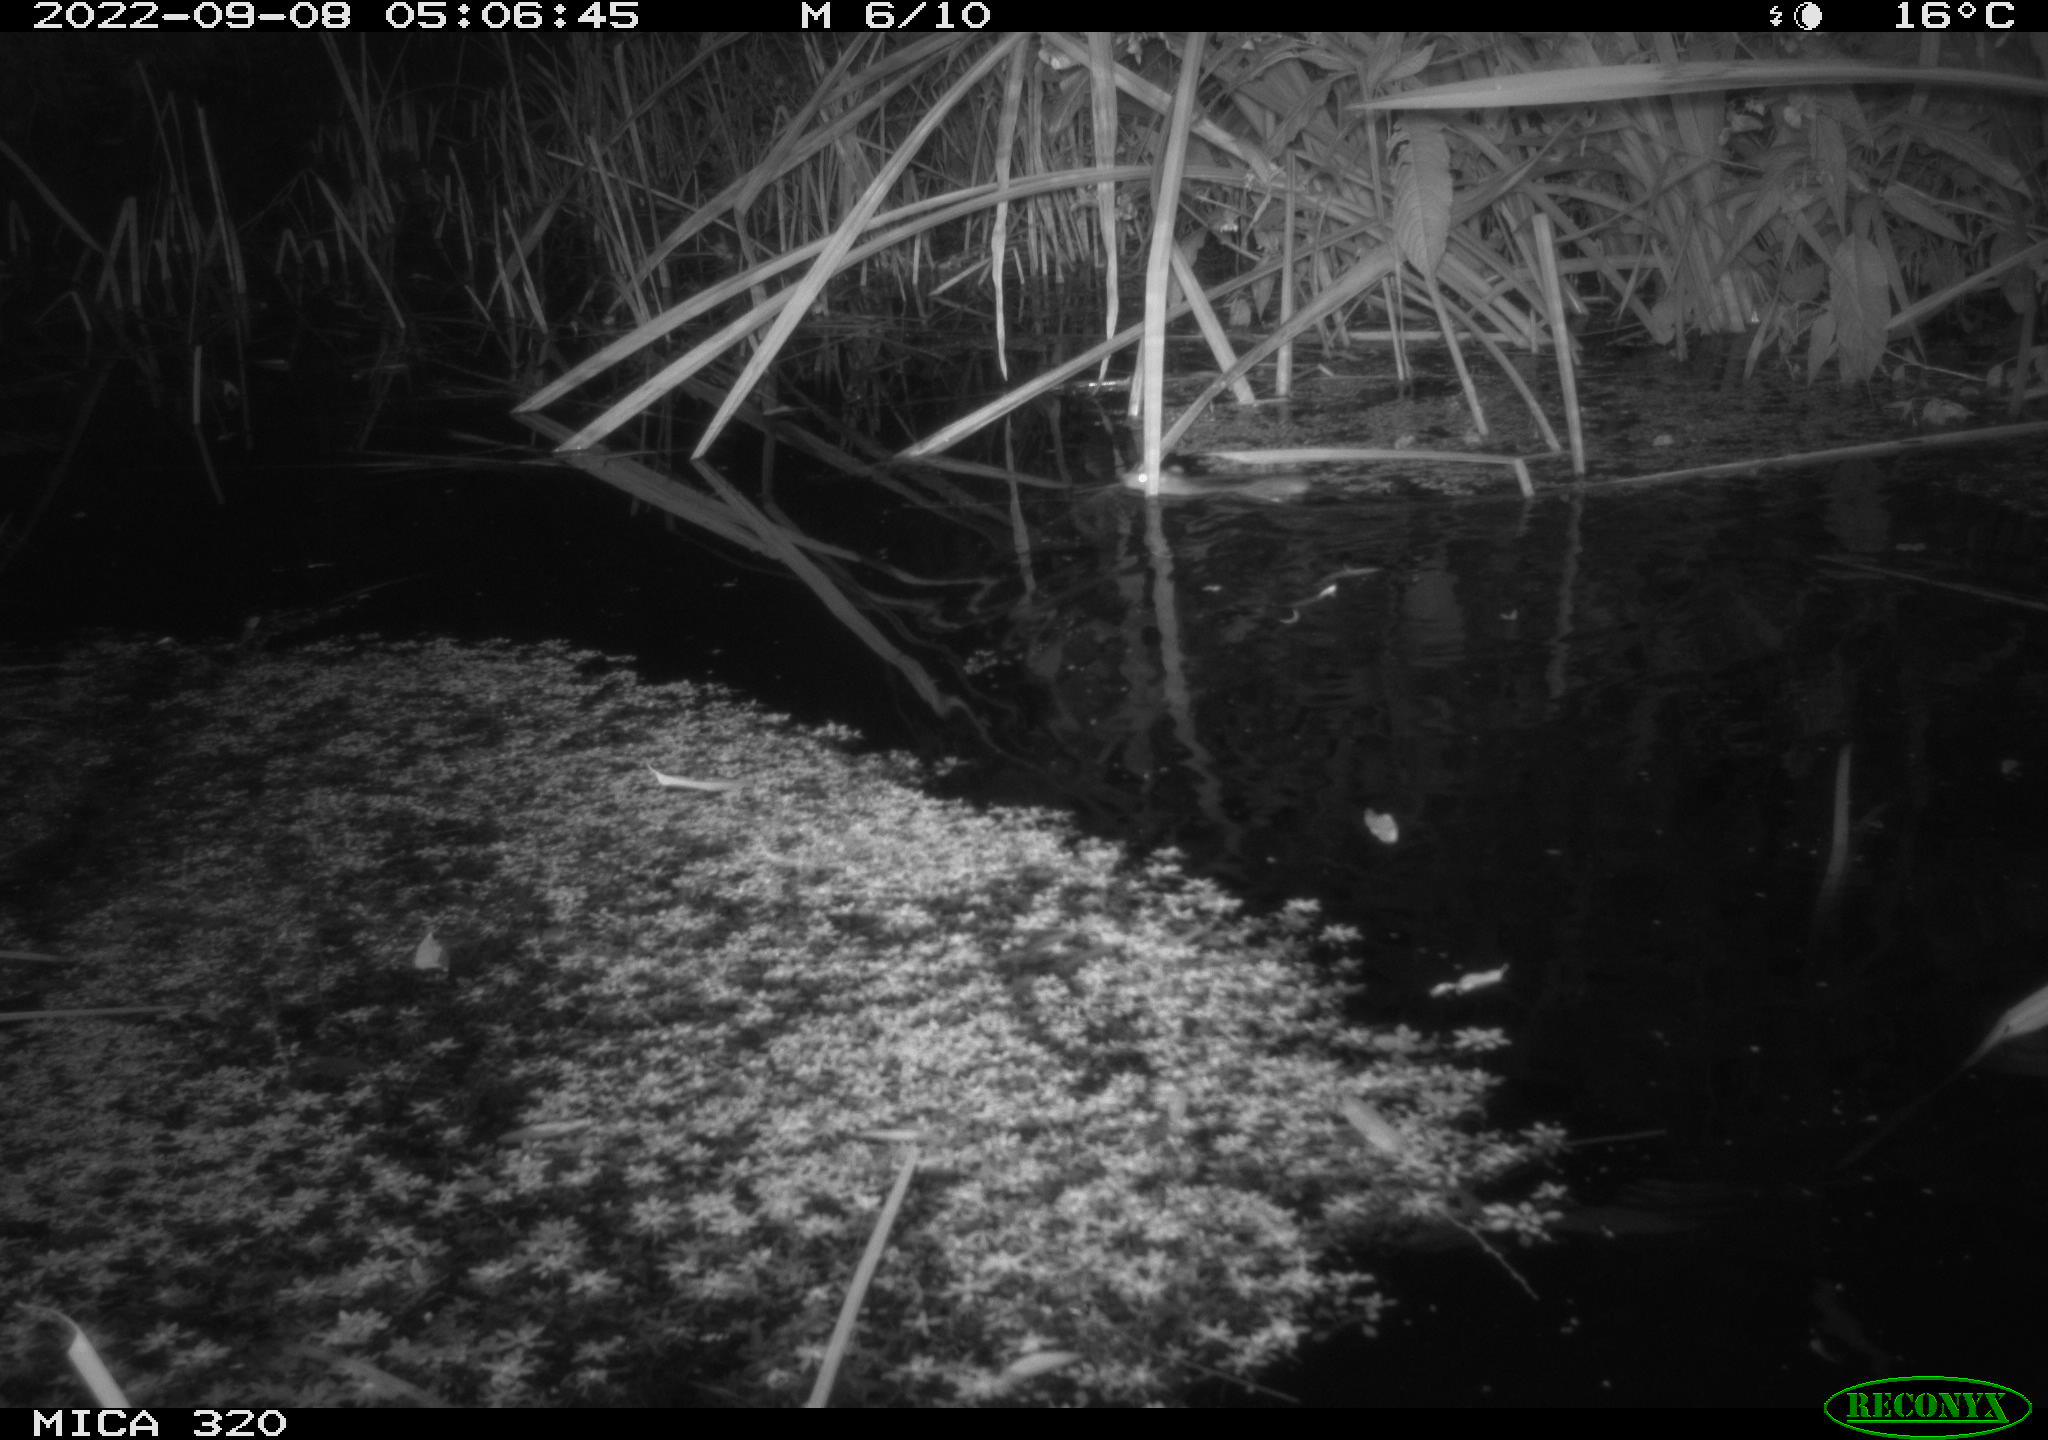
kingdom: Animalia
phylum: Chordata
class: Mammalia
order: Rodentia
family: Muridae
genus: Rattus
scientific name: Rattus norvegicus
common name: Brown rat
